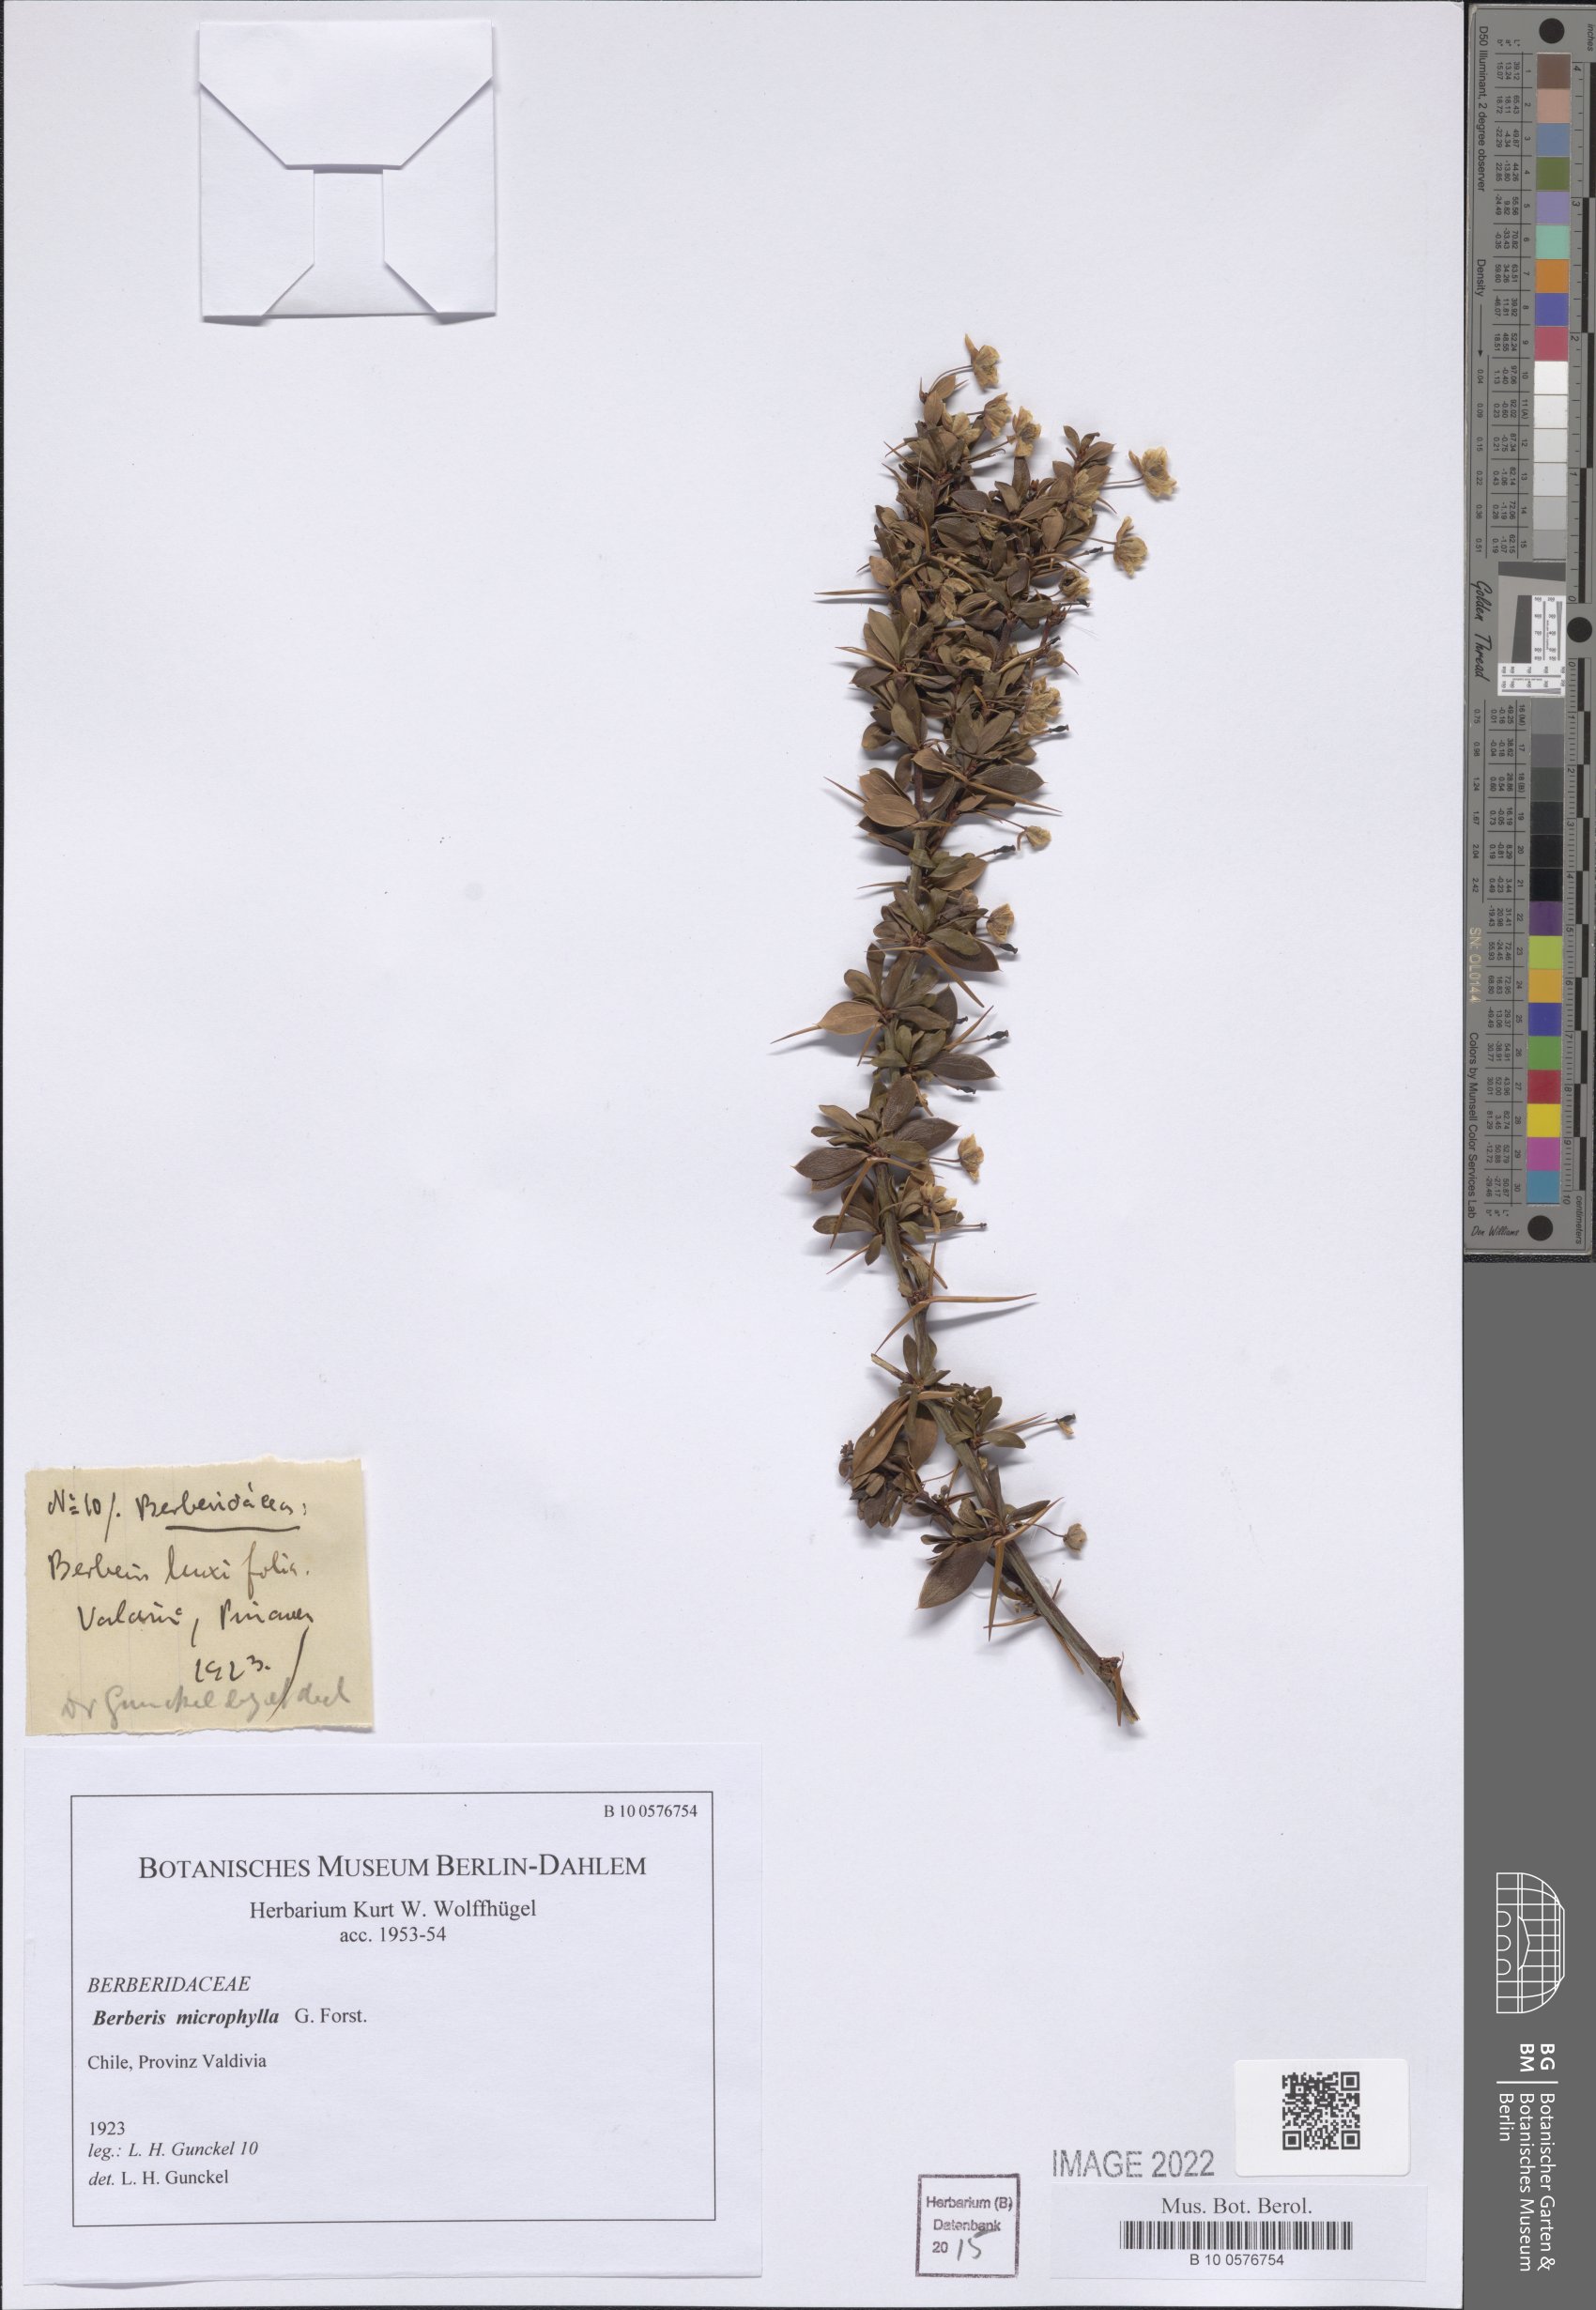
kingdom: Plantae
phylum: Tracheophyta
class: Magnoliopsida
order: Ranunculales
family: Berberidaceae
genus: Berberis
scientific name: Berberis microphylla
